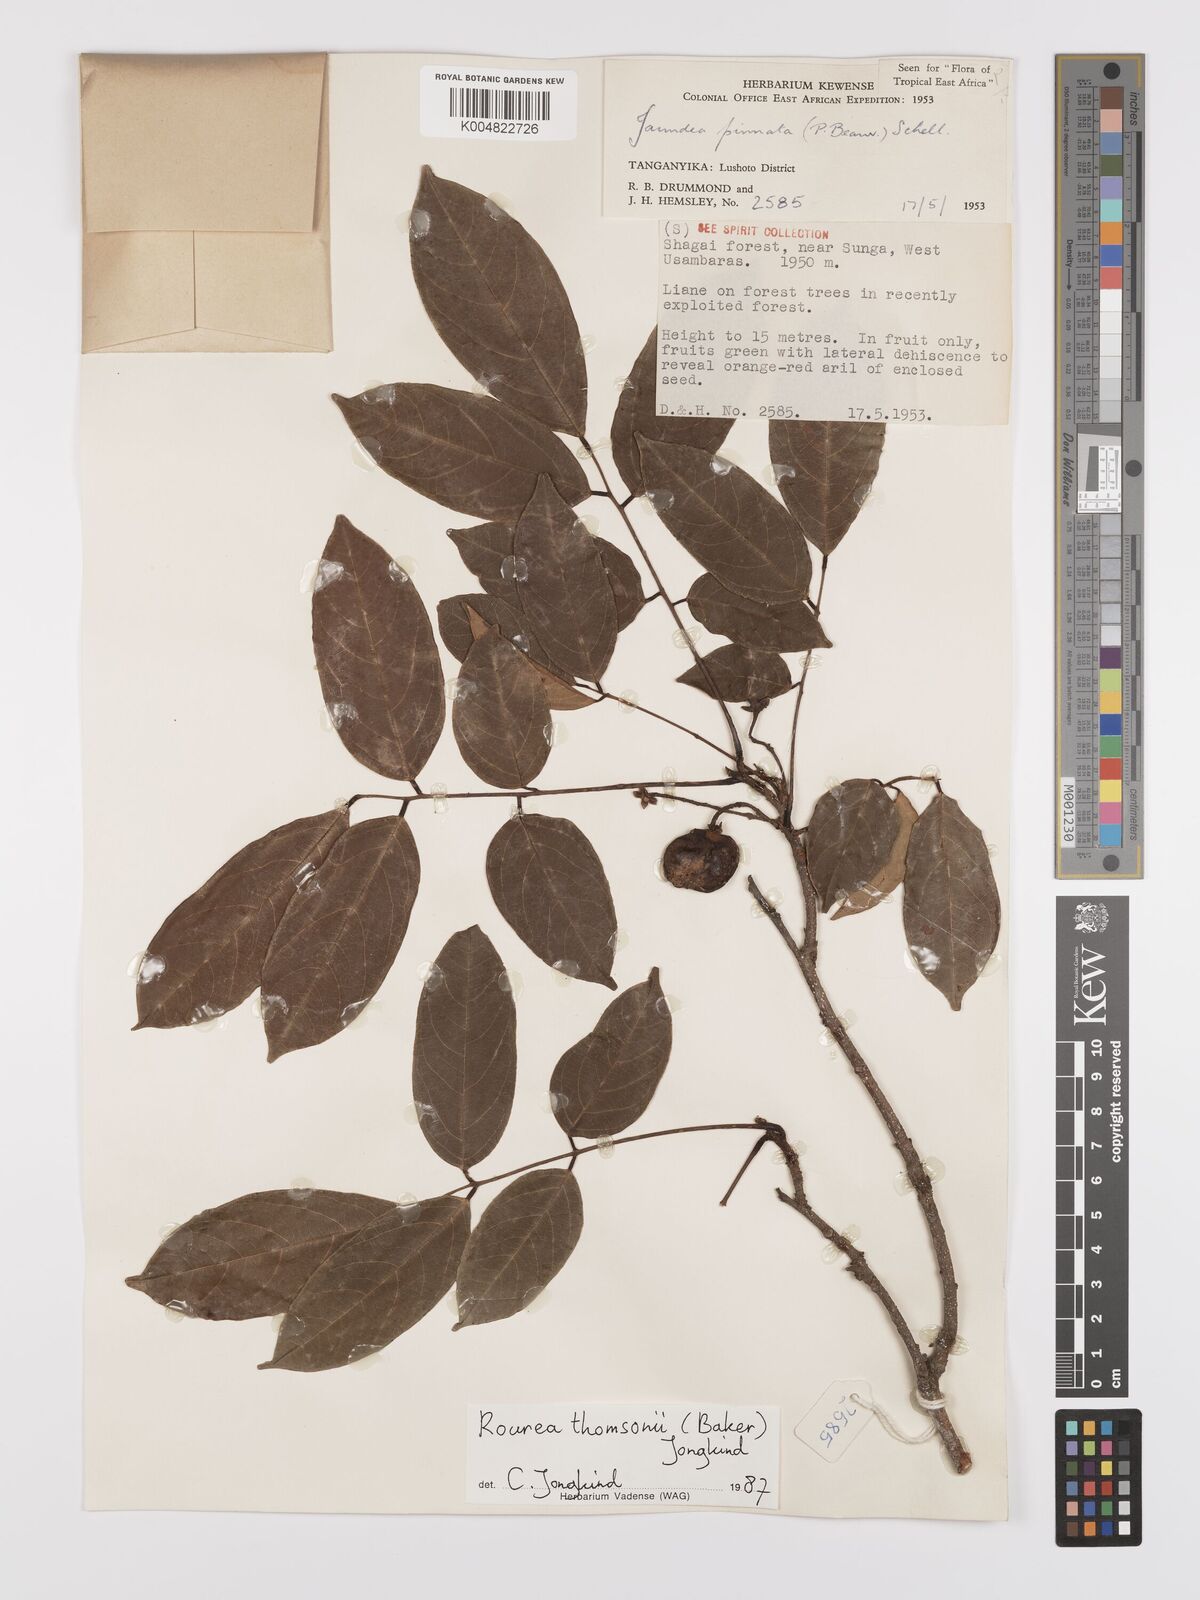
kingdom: Plantae
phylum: Tracheophyta
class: Magnoliopsida
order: Oxalidales
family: Connaraceae
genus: Rourea
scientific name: Rourea pinnata
